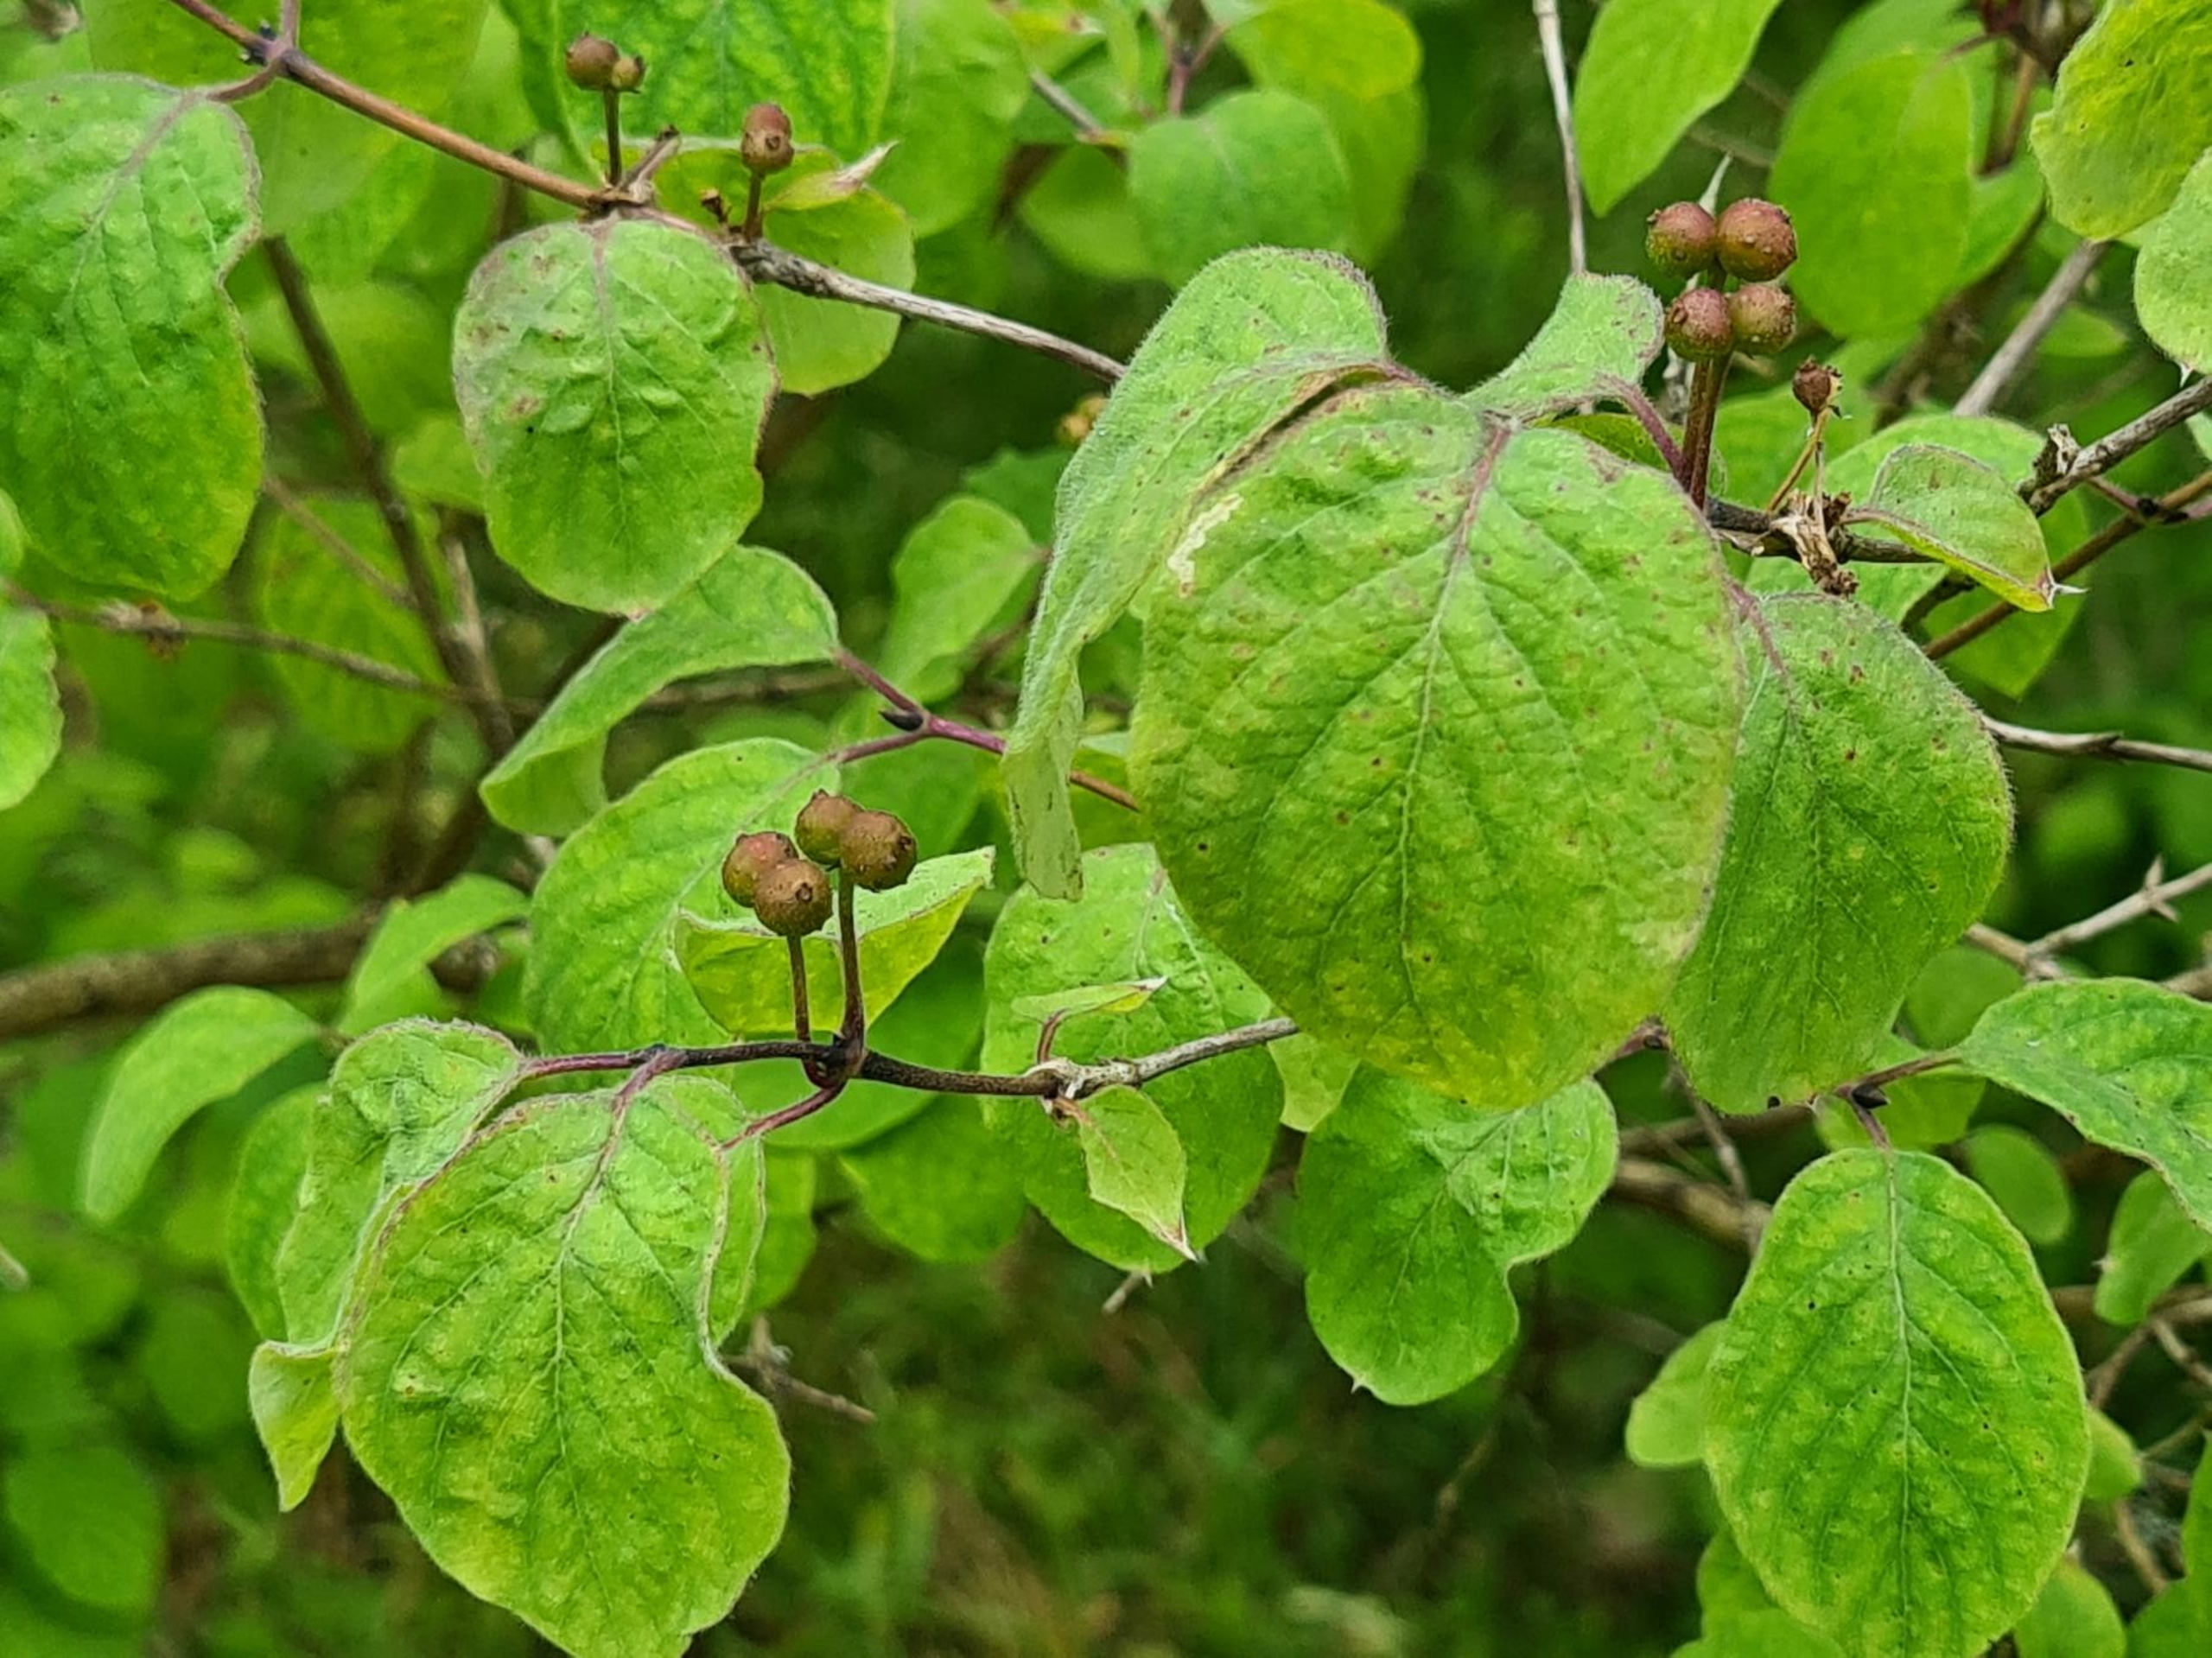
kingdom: Plantae
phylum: Tracheophyta
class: Magnoliopsida
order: Dipsacales
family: Caprifoliaceae
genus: Lonicera
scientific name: Lonicera xylosteum
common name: Dunet gedeblad
